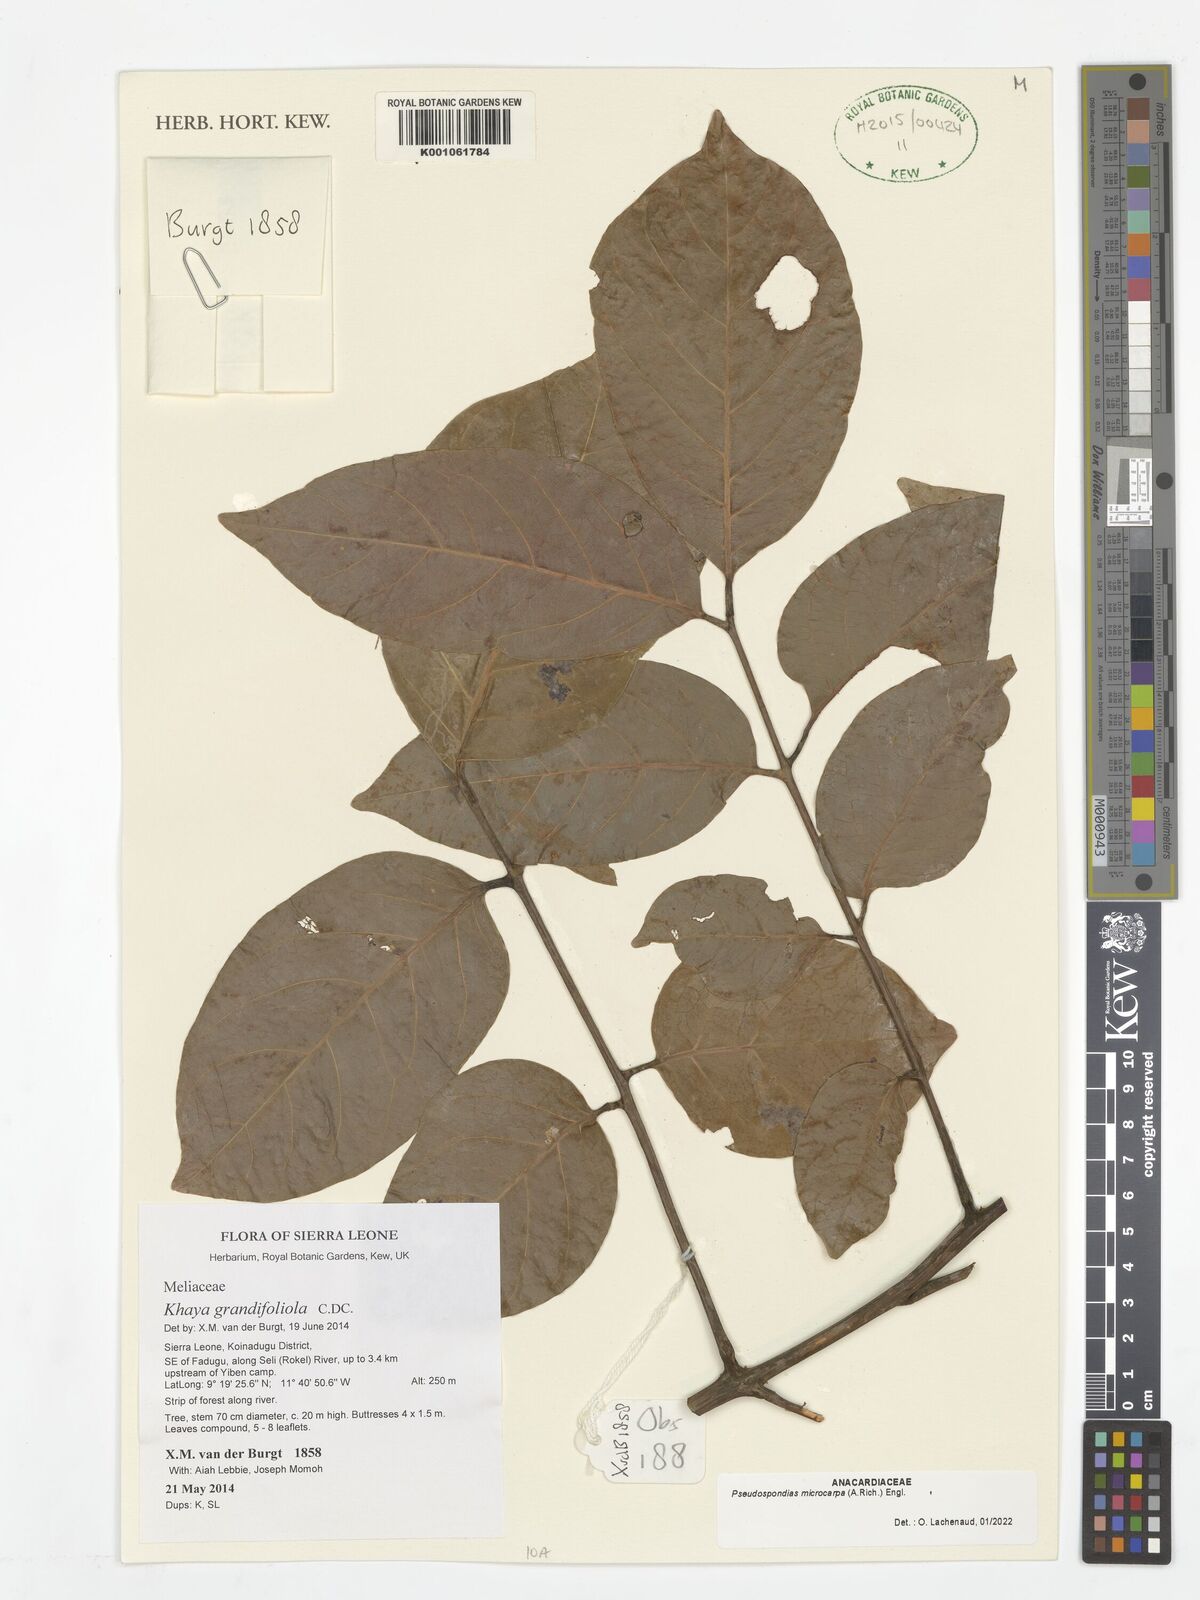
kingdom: Plantae
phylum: Tracheophyta
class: Magnoliopsida
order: Sapindales
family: Anacardiaceae
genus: Pseudospondias
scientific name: Pseudospondias microcarpa
